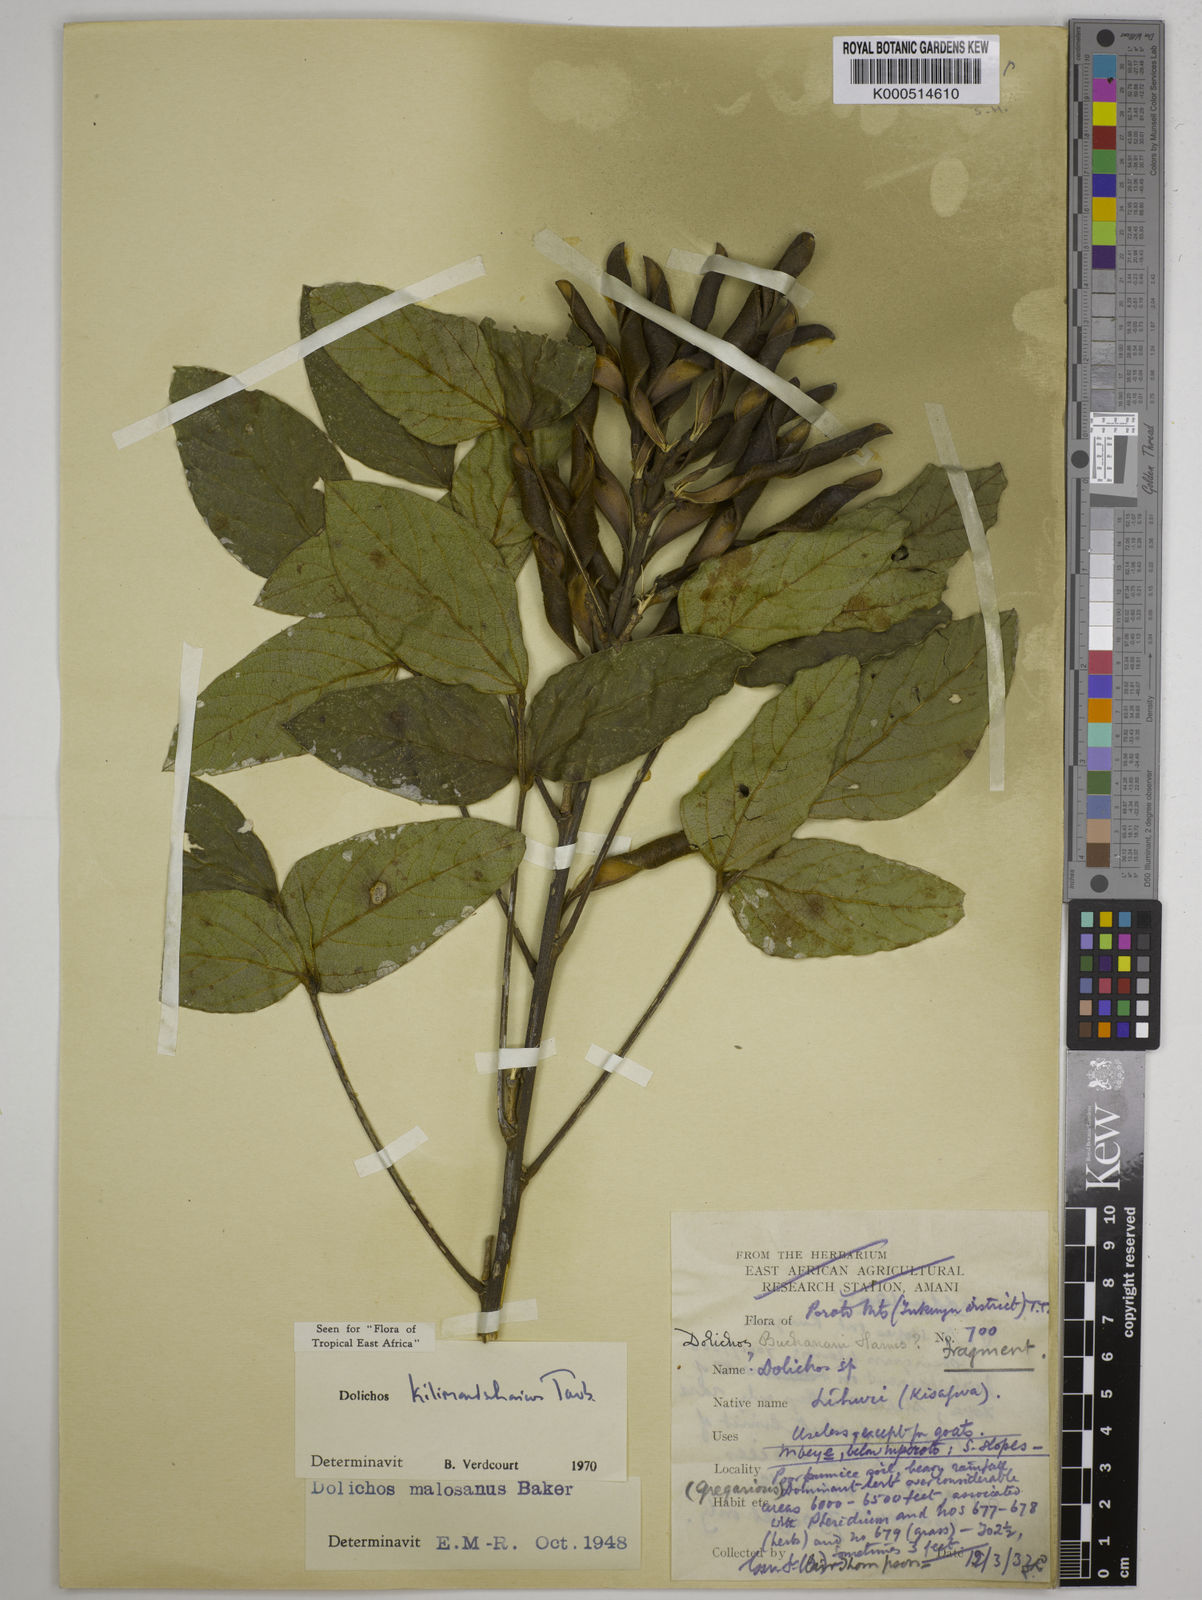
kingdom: Plantae
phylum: Tracheophyta
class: Magnoliopsida
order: Fabales
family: Fabaceae
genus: Dolichos
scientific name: Dolichos kilimandscharicus
